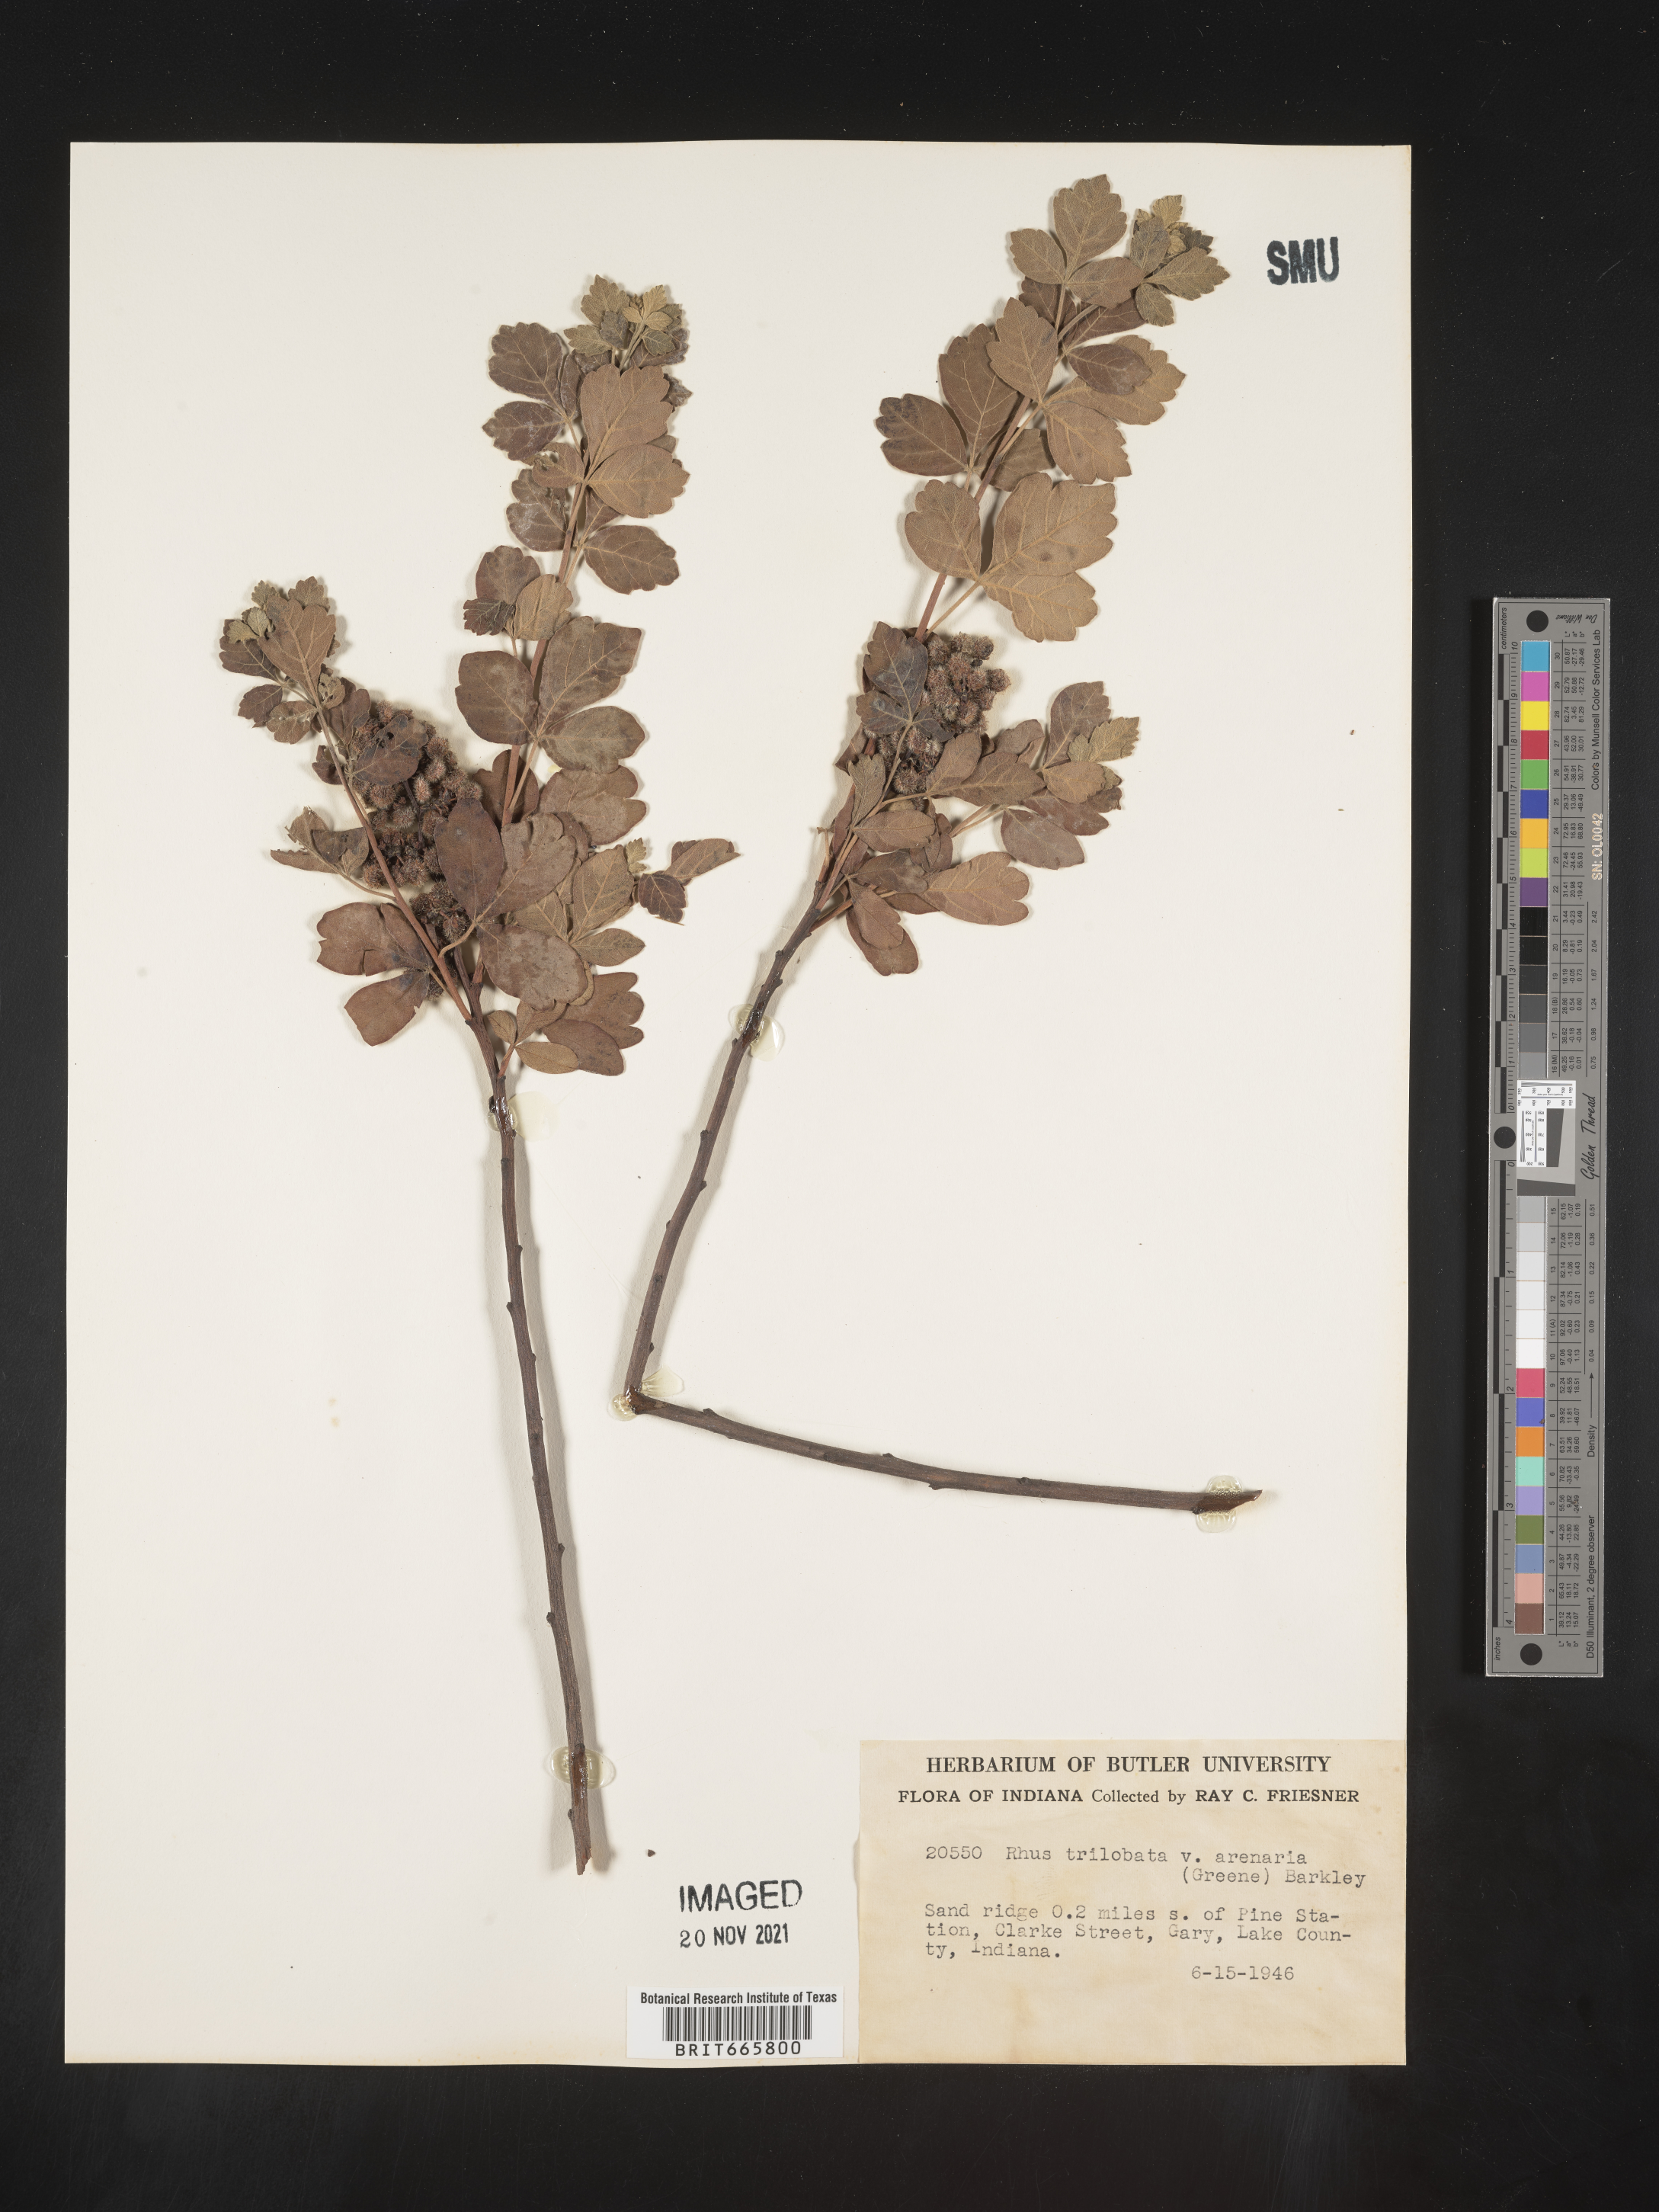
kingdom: Plantae
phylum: Tracheophyta
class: Magnoliopsida
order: Sapindales
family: Anacardiaceae
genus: Rhus
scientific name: Rhus aromatica
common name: Aromatic sumac
